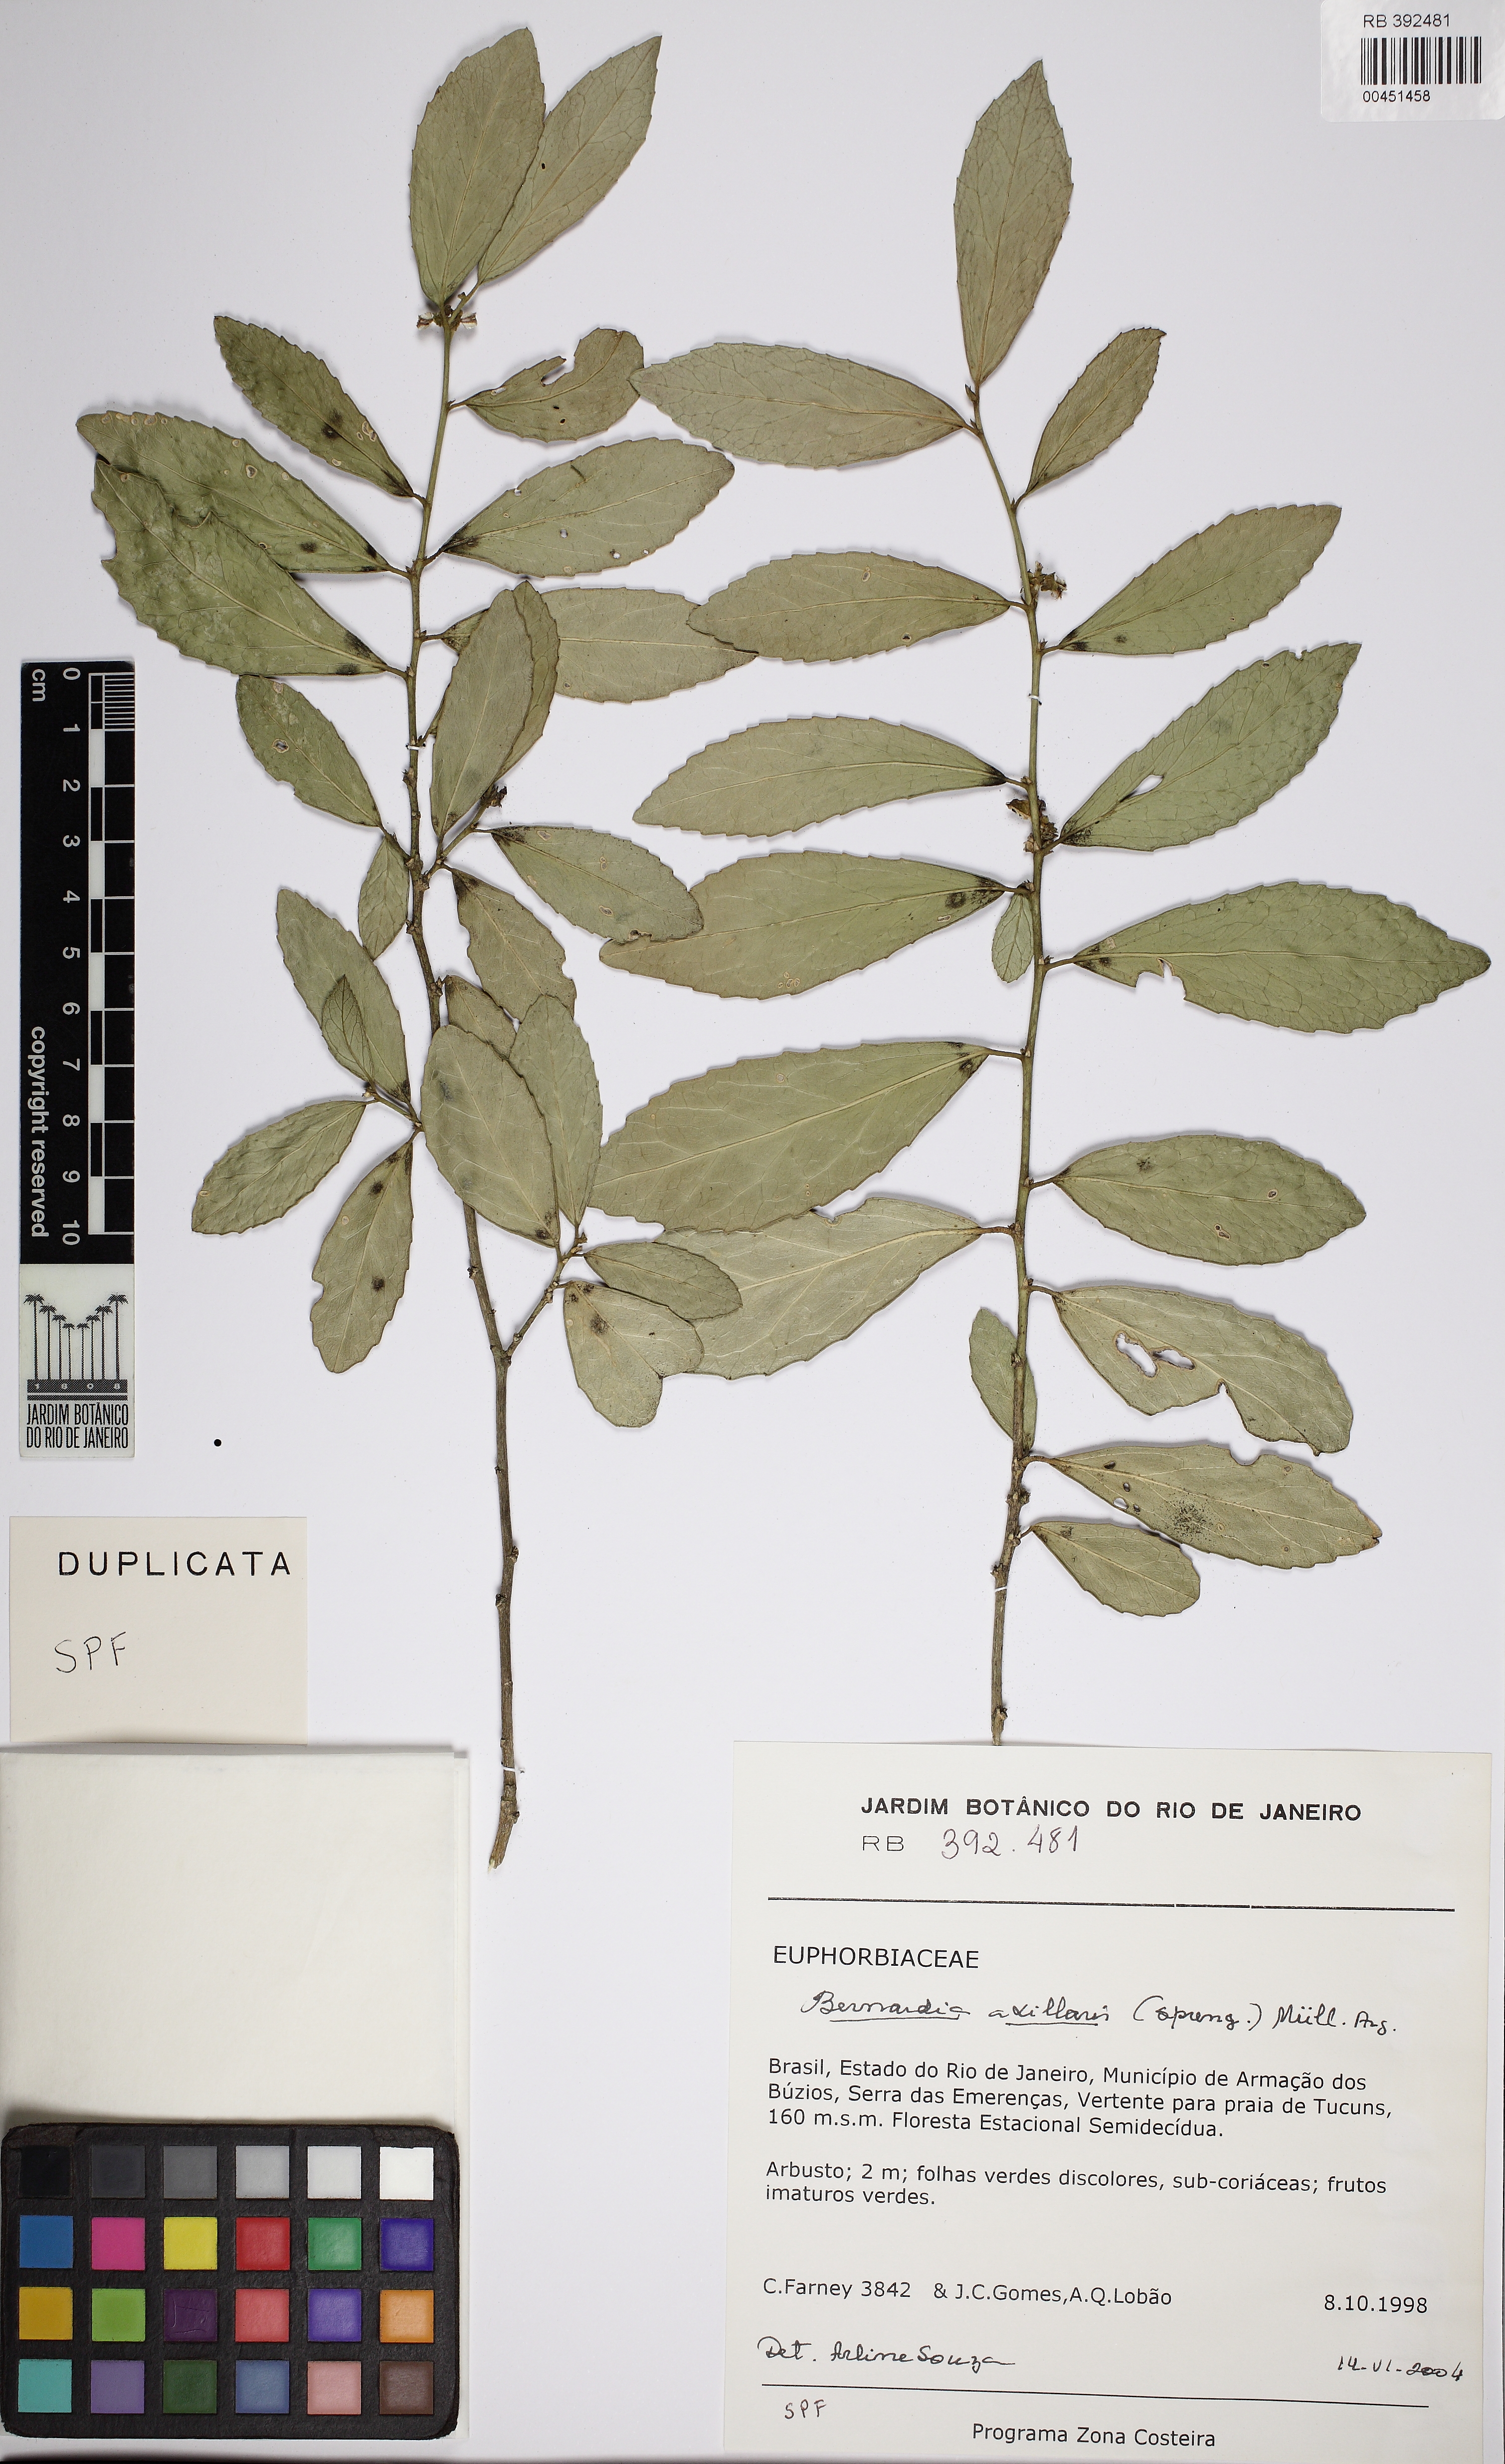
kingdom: Plantae
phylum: Tracheophyta
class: Magnoliopsida
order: Malpighiales
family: Euphorbiaceae
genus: Bernardia
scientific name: Bernardia axillaris
